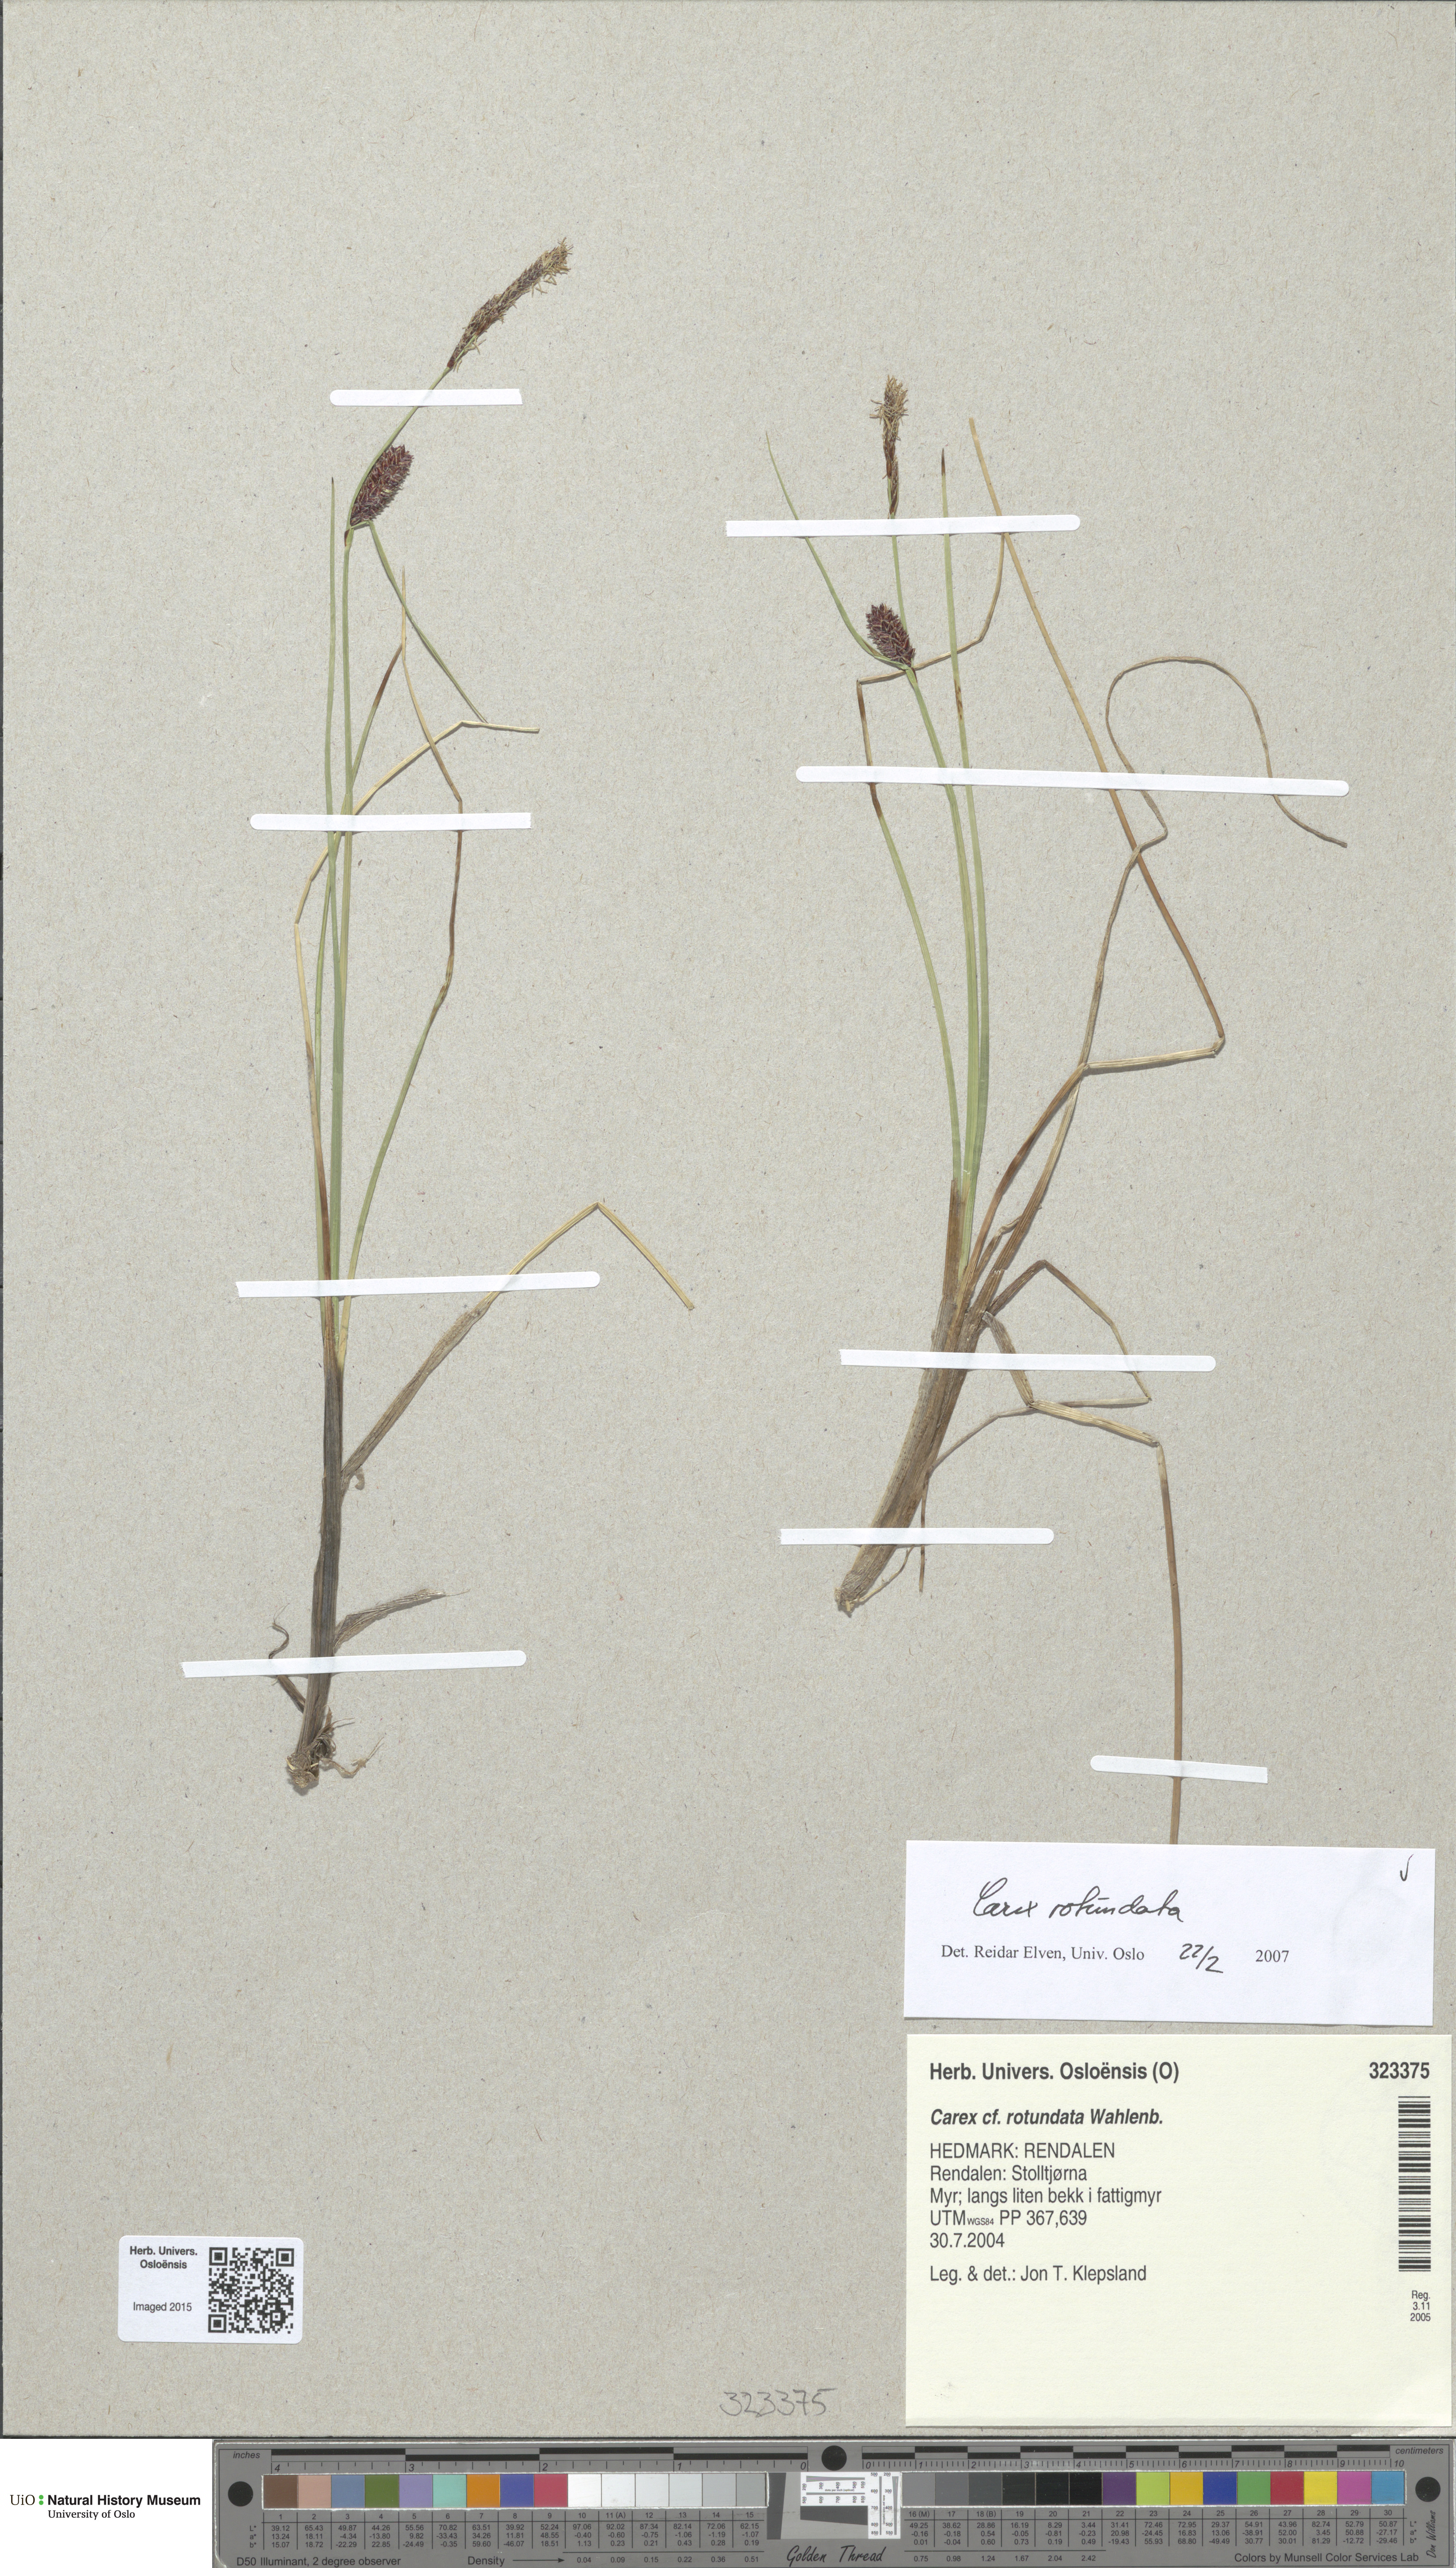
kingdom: Plantae
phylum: Tracheophyta
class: Liliopsida
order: Poales
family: Cyperaceae
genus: Carex
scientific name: Carex rotundata
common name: Round-fruited sedge
